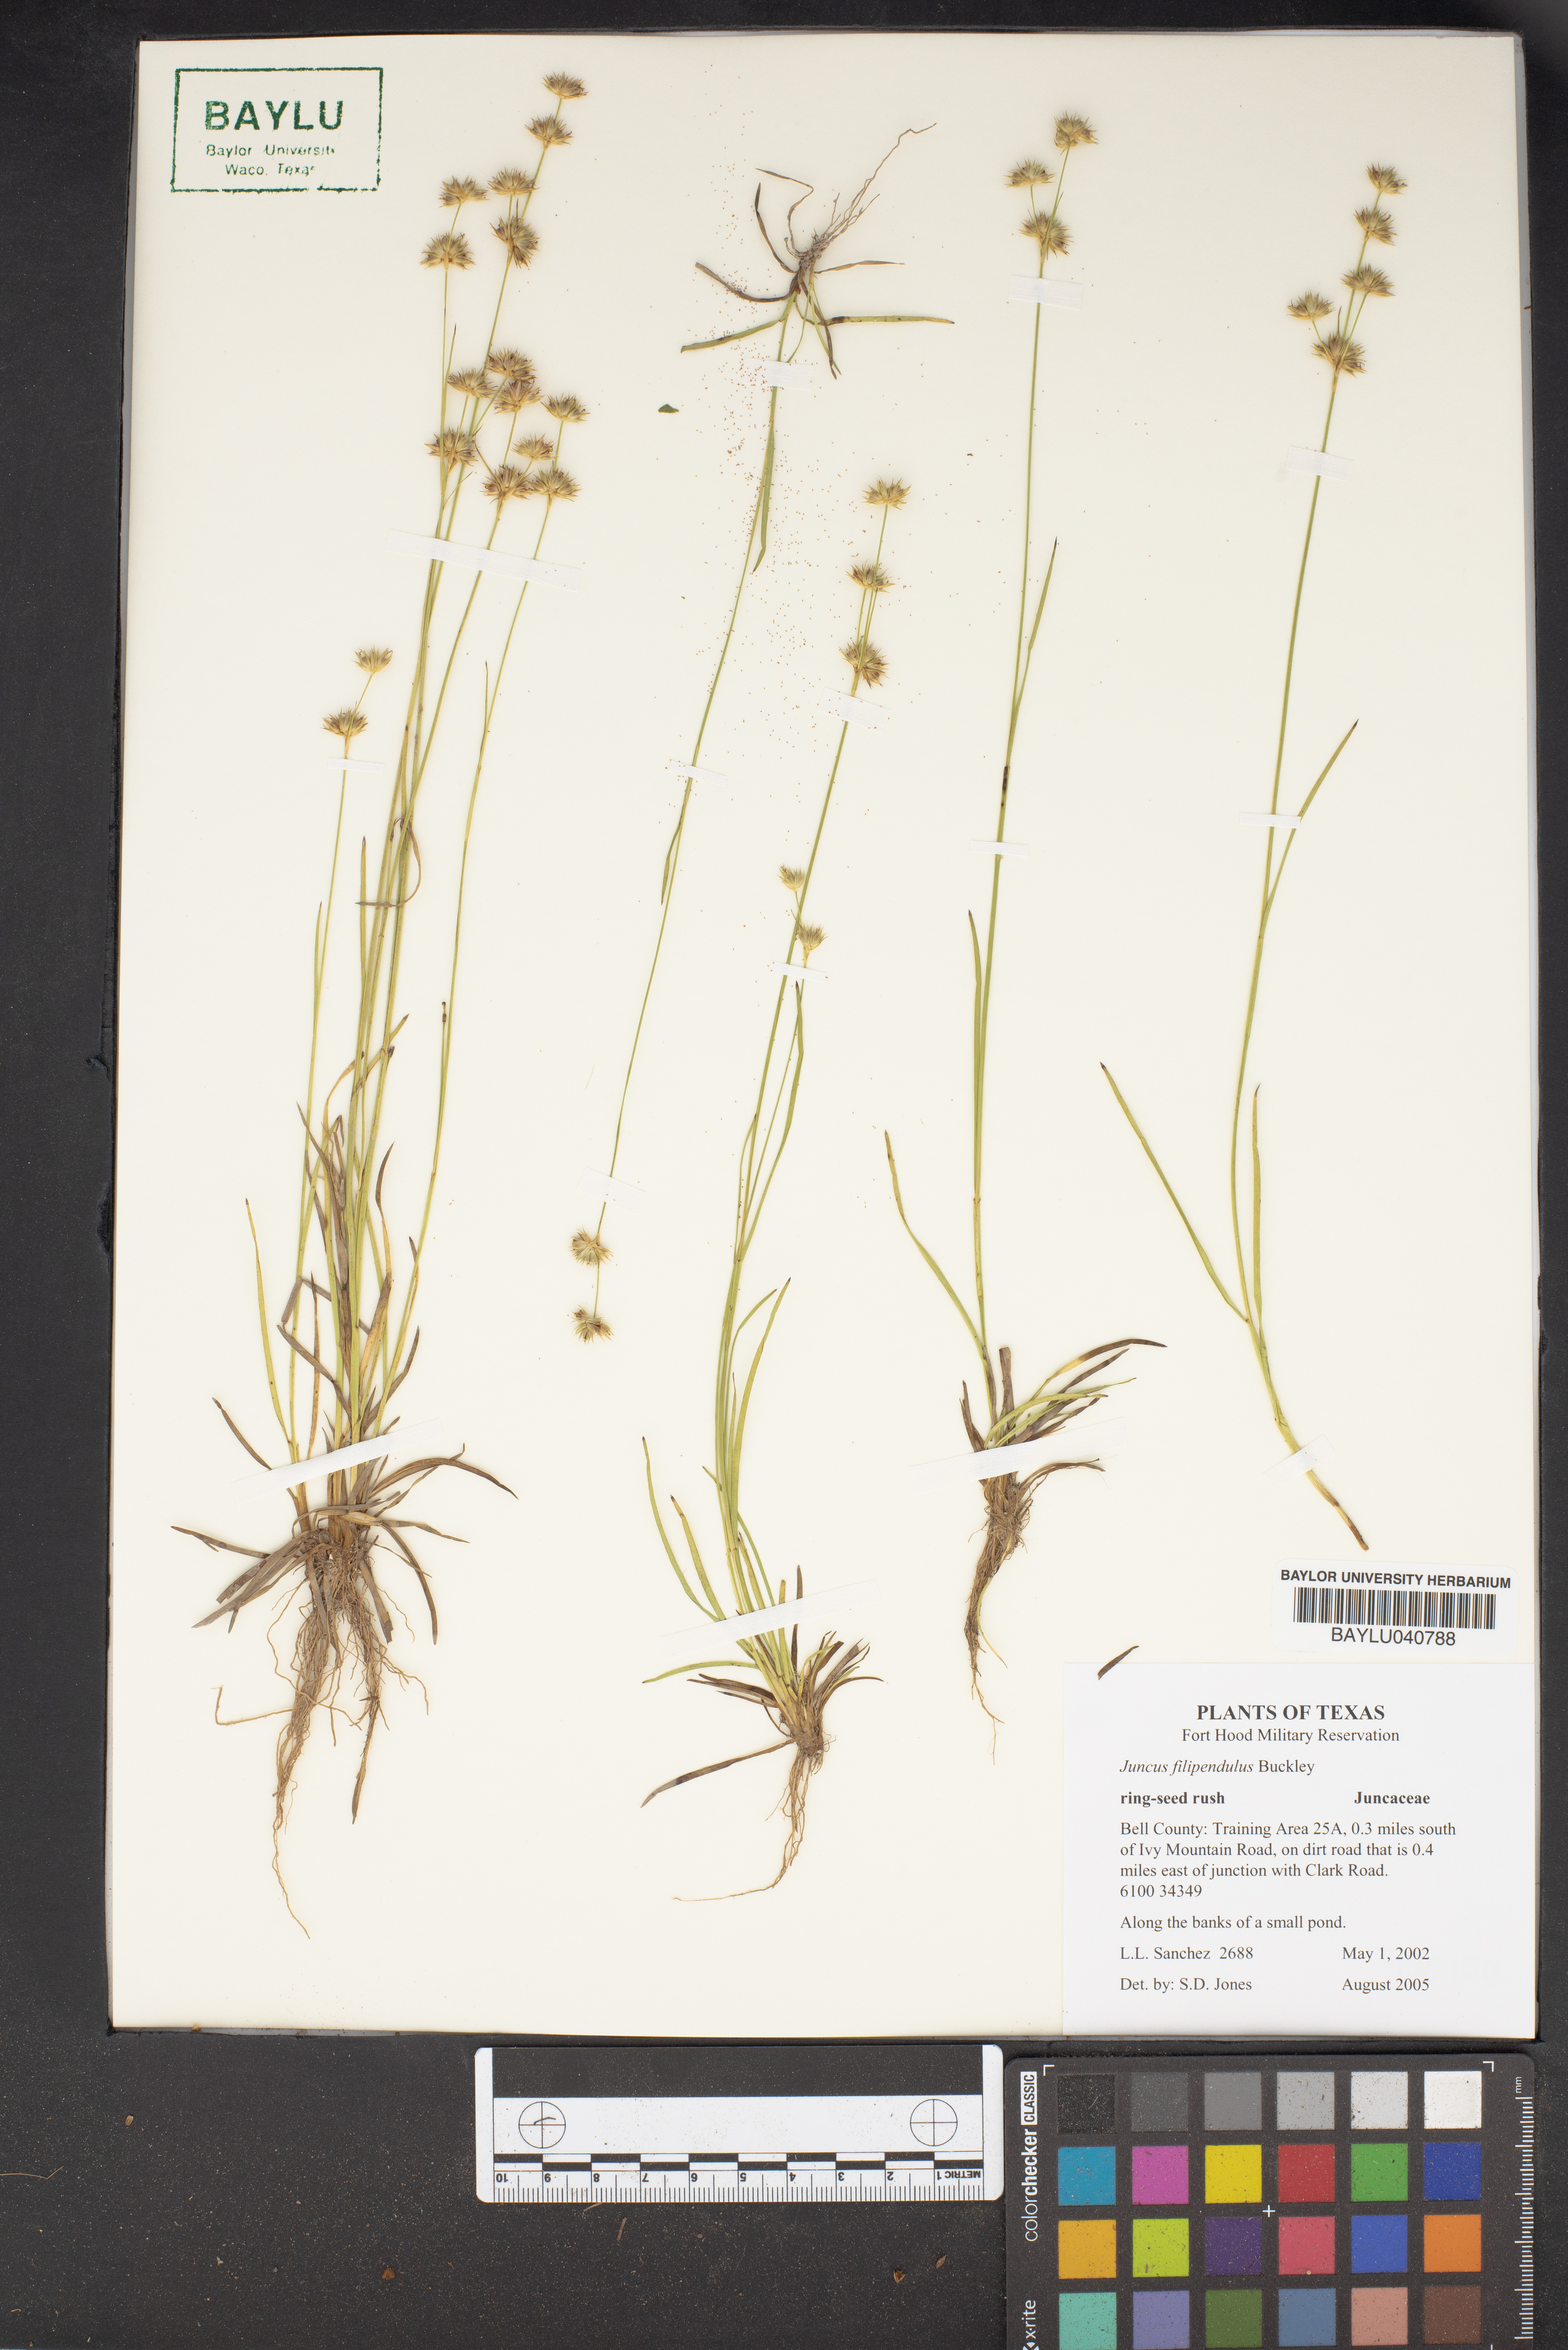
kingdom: Plantae
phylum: Tracheophyta
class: Liliopsida
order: Poales
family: Juncaceae
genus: Juncus
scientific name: Juncus filipendulus
